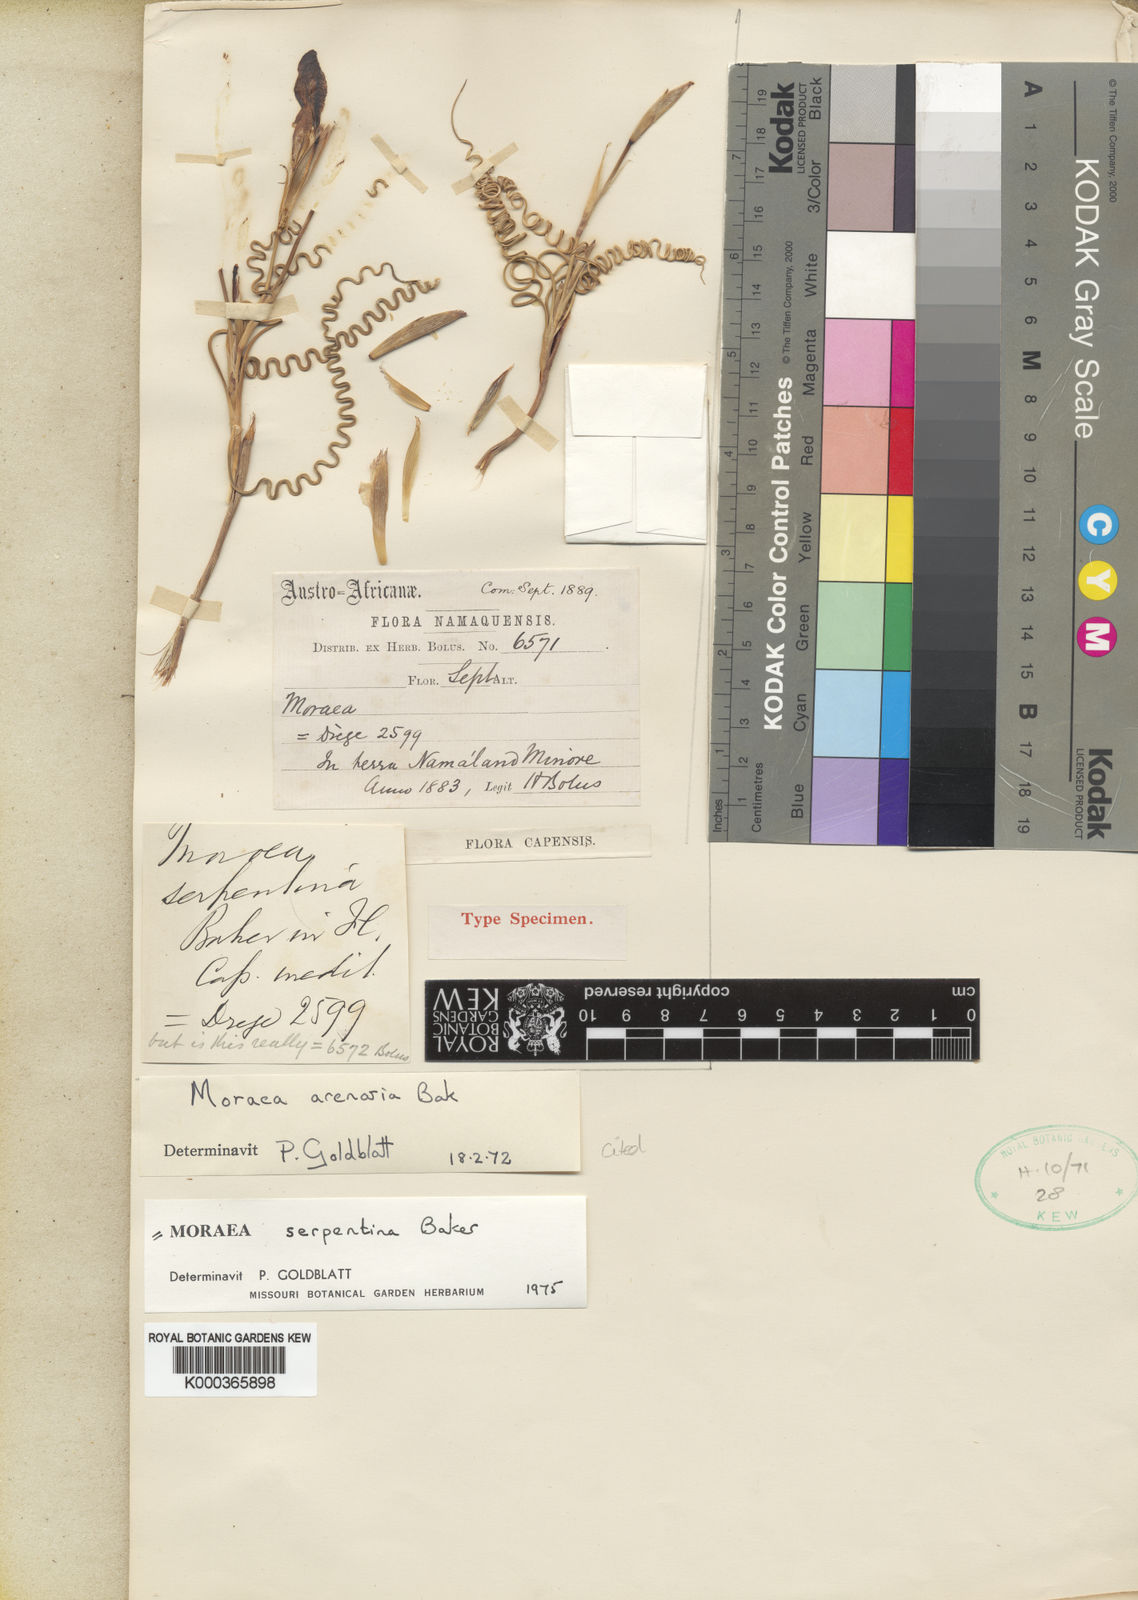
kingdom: Plantae
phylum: Tracheophyta
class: Liliopsida
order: Asparagales
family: Iridaceae
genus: Moraea
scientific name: Moraea serpentina
